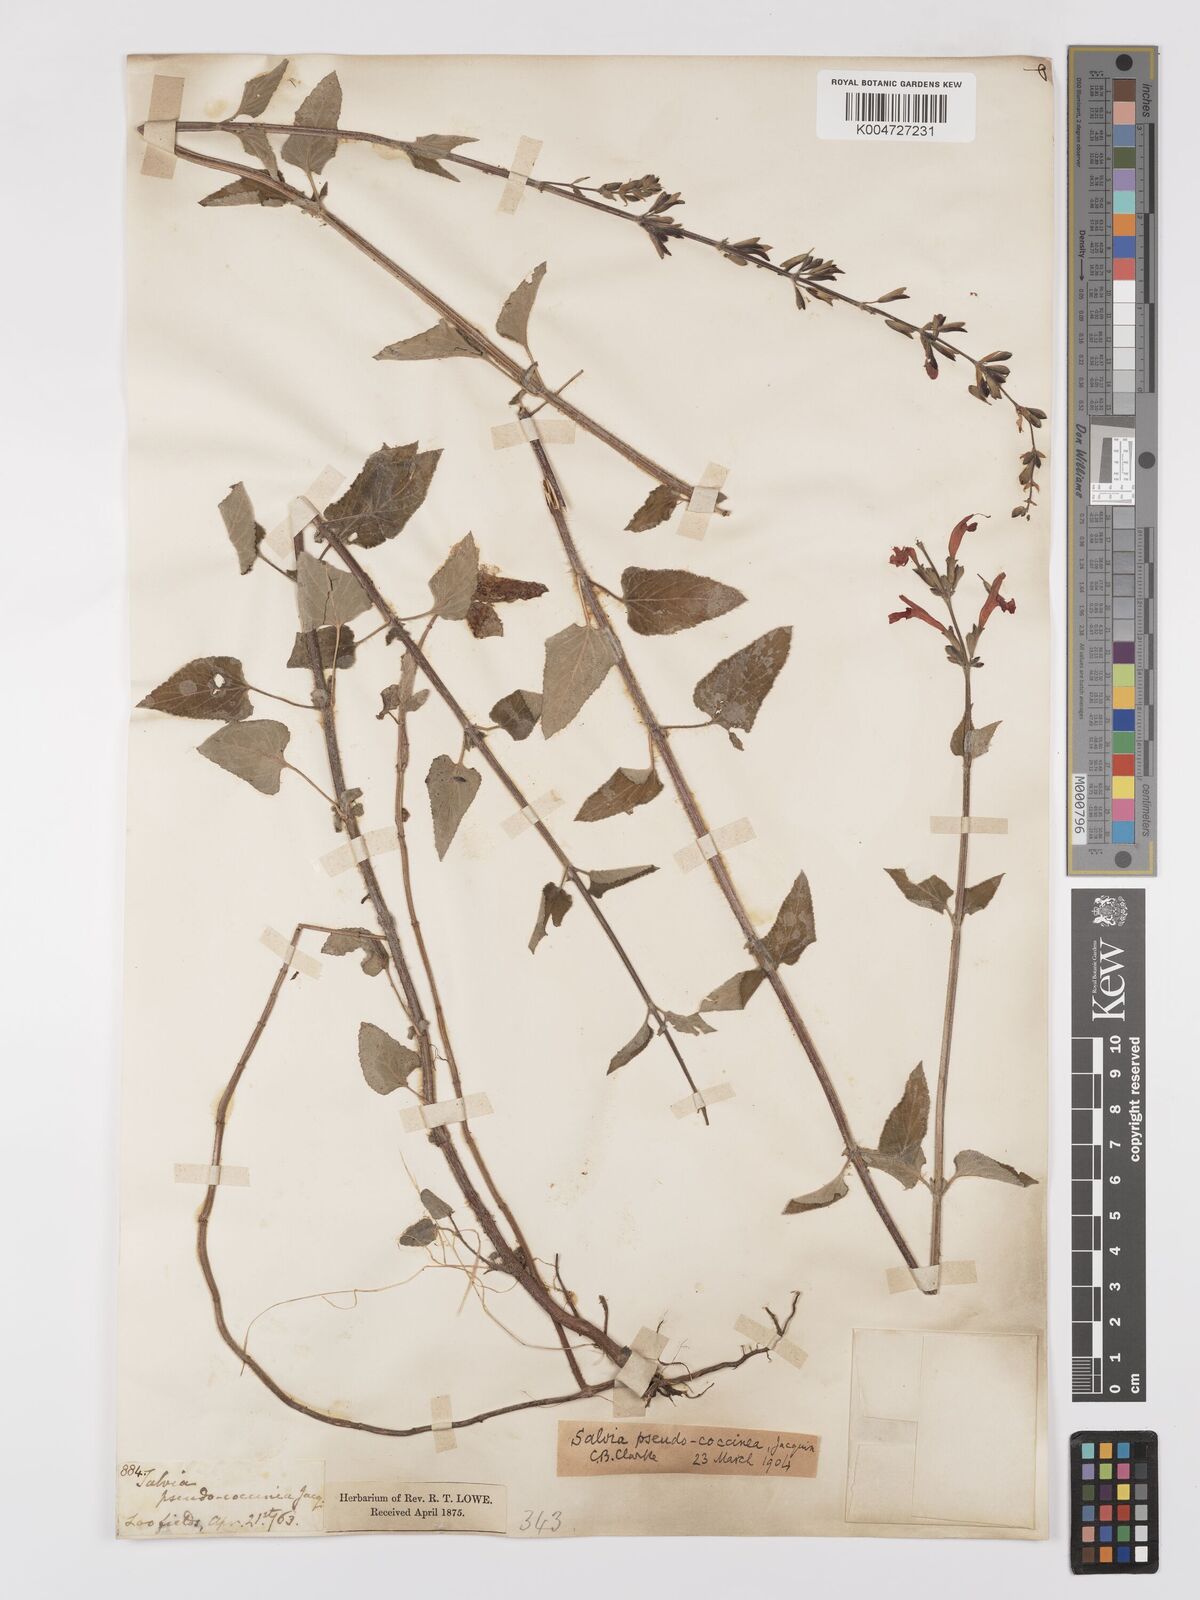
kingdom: Plantae
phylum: Tracheophyta
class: Magnoliopsida
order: Lamiales
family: Lamiaceae
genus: Salvia
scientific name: Salvia
